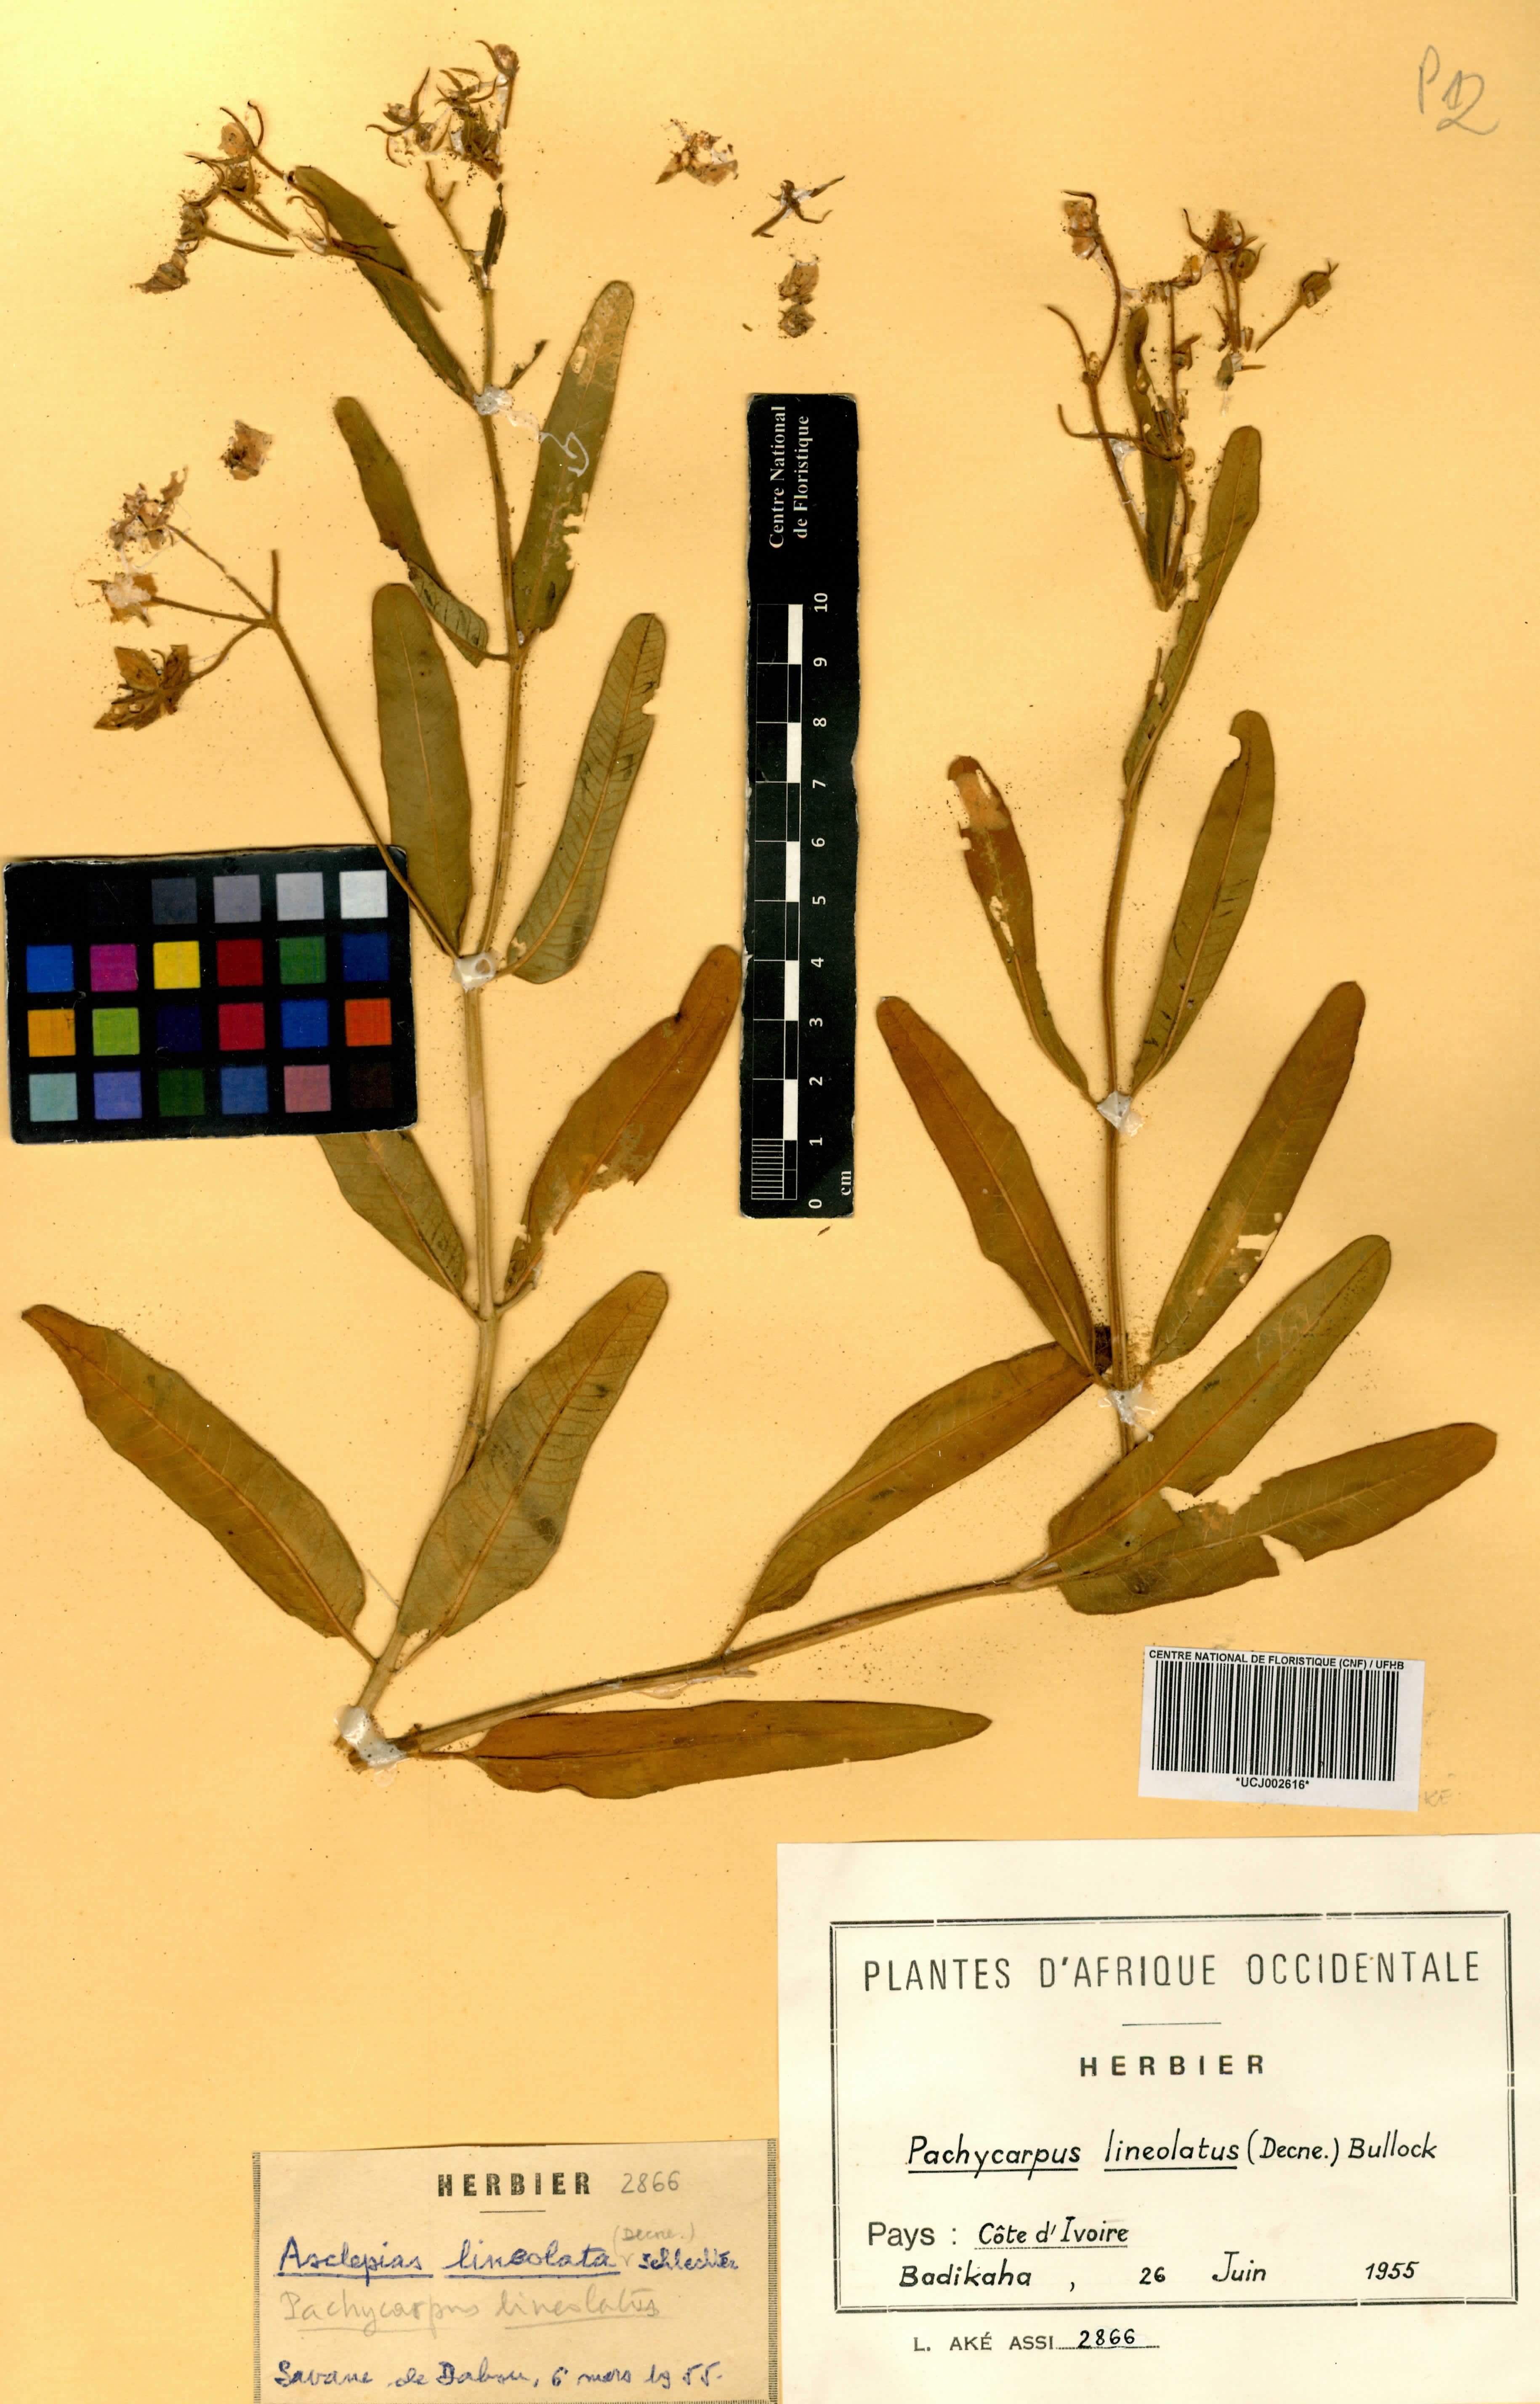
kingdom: Plantae
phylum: Tracheophyta
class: Magnoliopsida
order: Gentianales
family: Apocynaceae
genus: Pachycarpus
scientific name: Pachycarpus lineolatus
